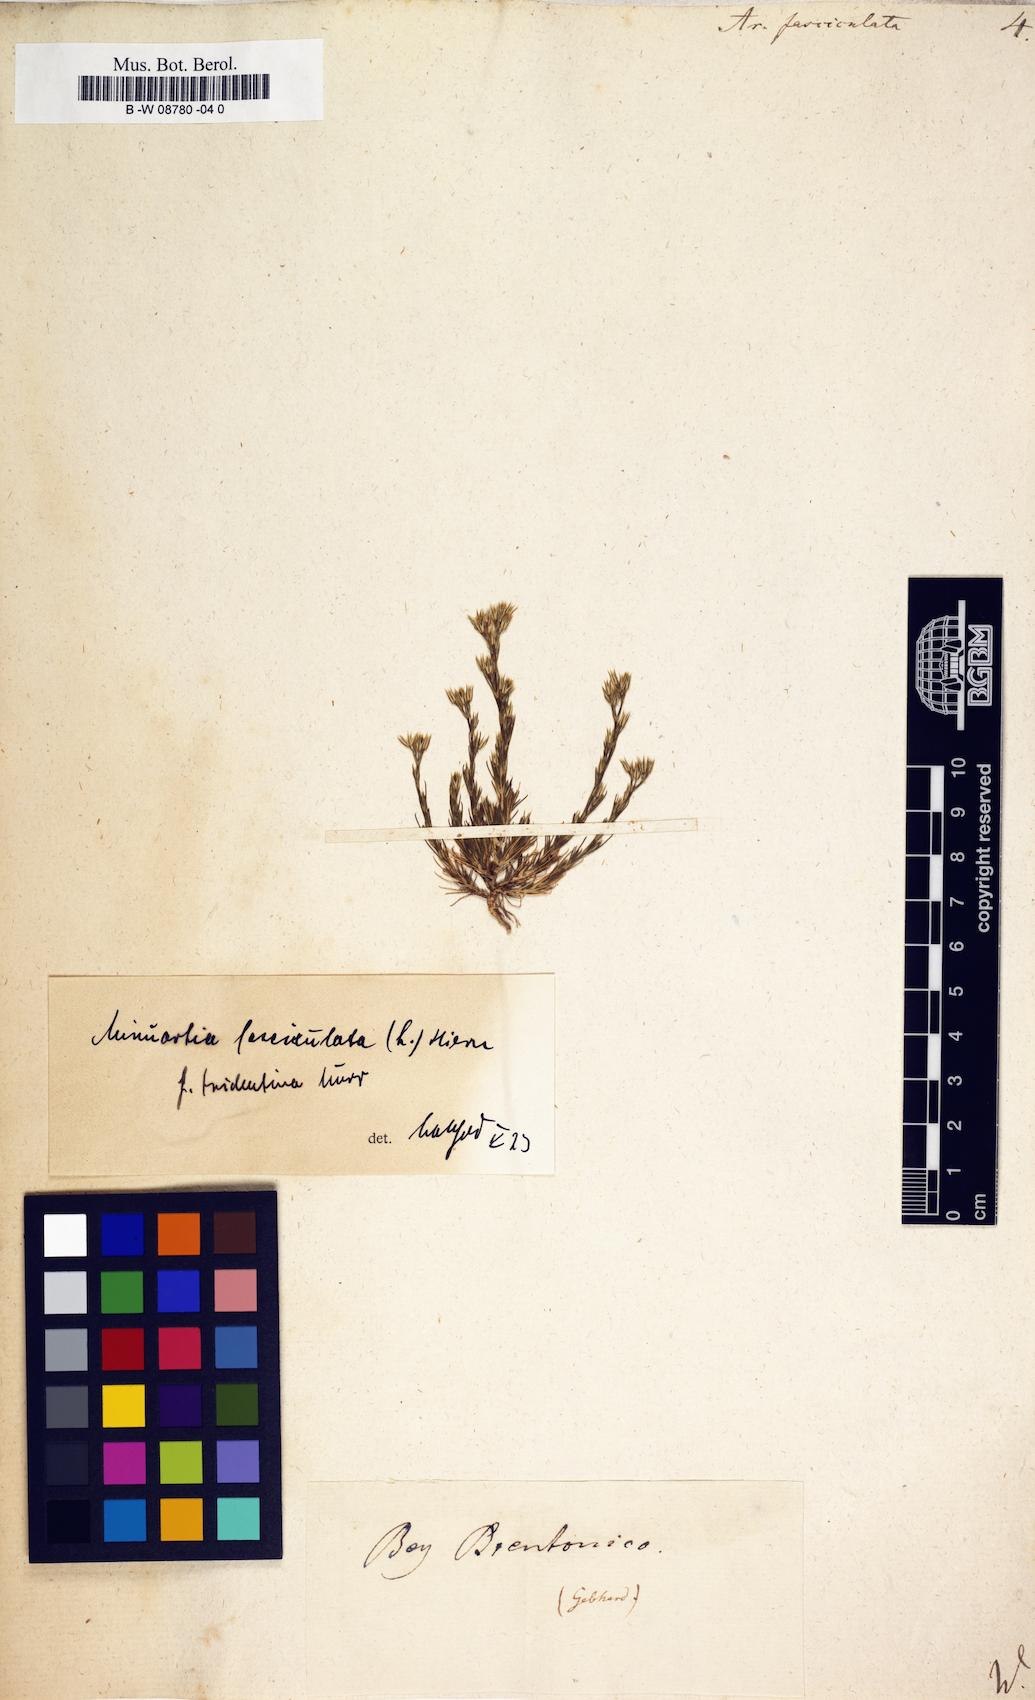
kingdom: Plantae
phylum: Tracheophyta
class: Magnoliopsida
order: Caryophyllales
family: Caryophyllaceae
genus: Minuartia
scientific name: Minuartia mucronata
